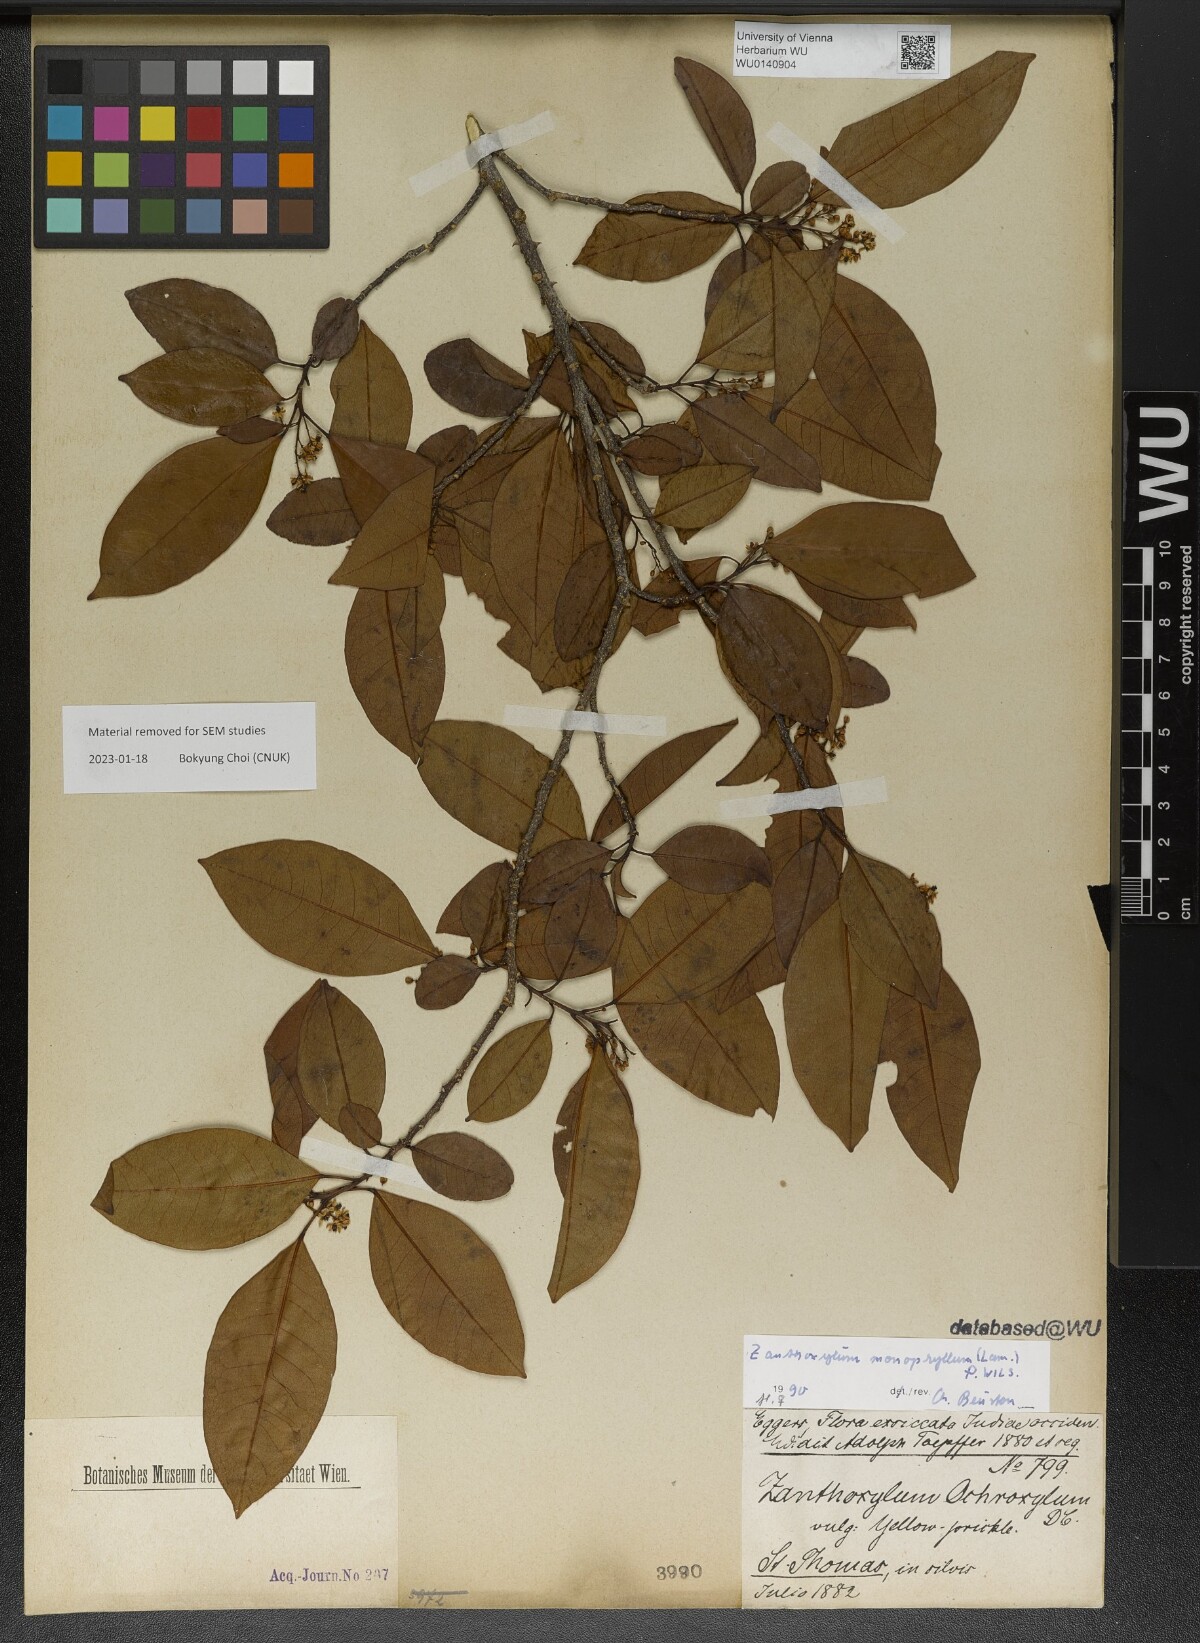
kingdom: Plantae
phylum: Tracheophyta
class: Magnoliopsida
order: Sapindales
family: Rutaceae
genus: Zanthoxylum
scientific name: Zanthoxylum schreberi
